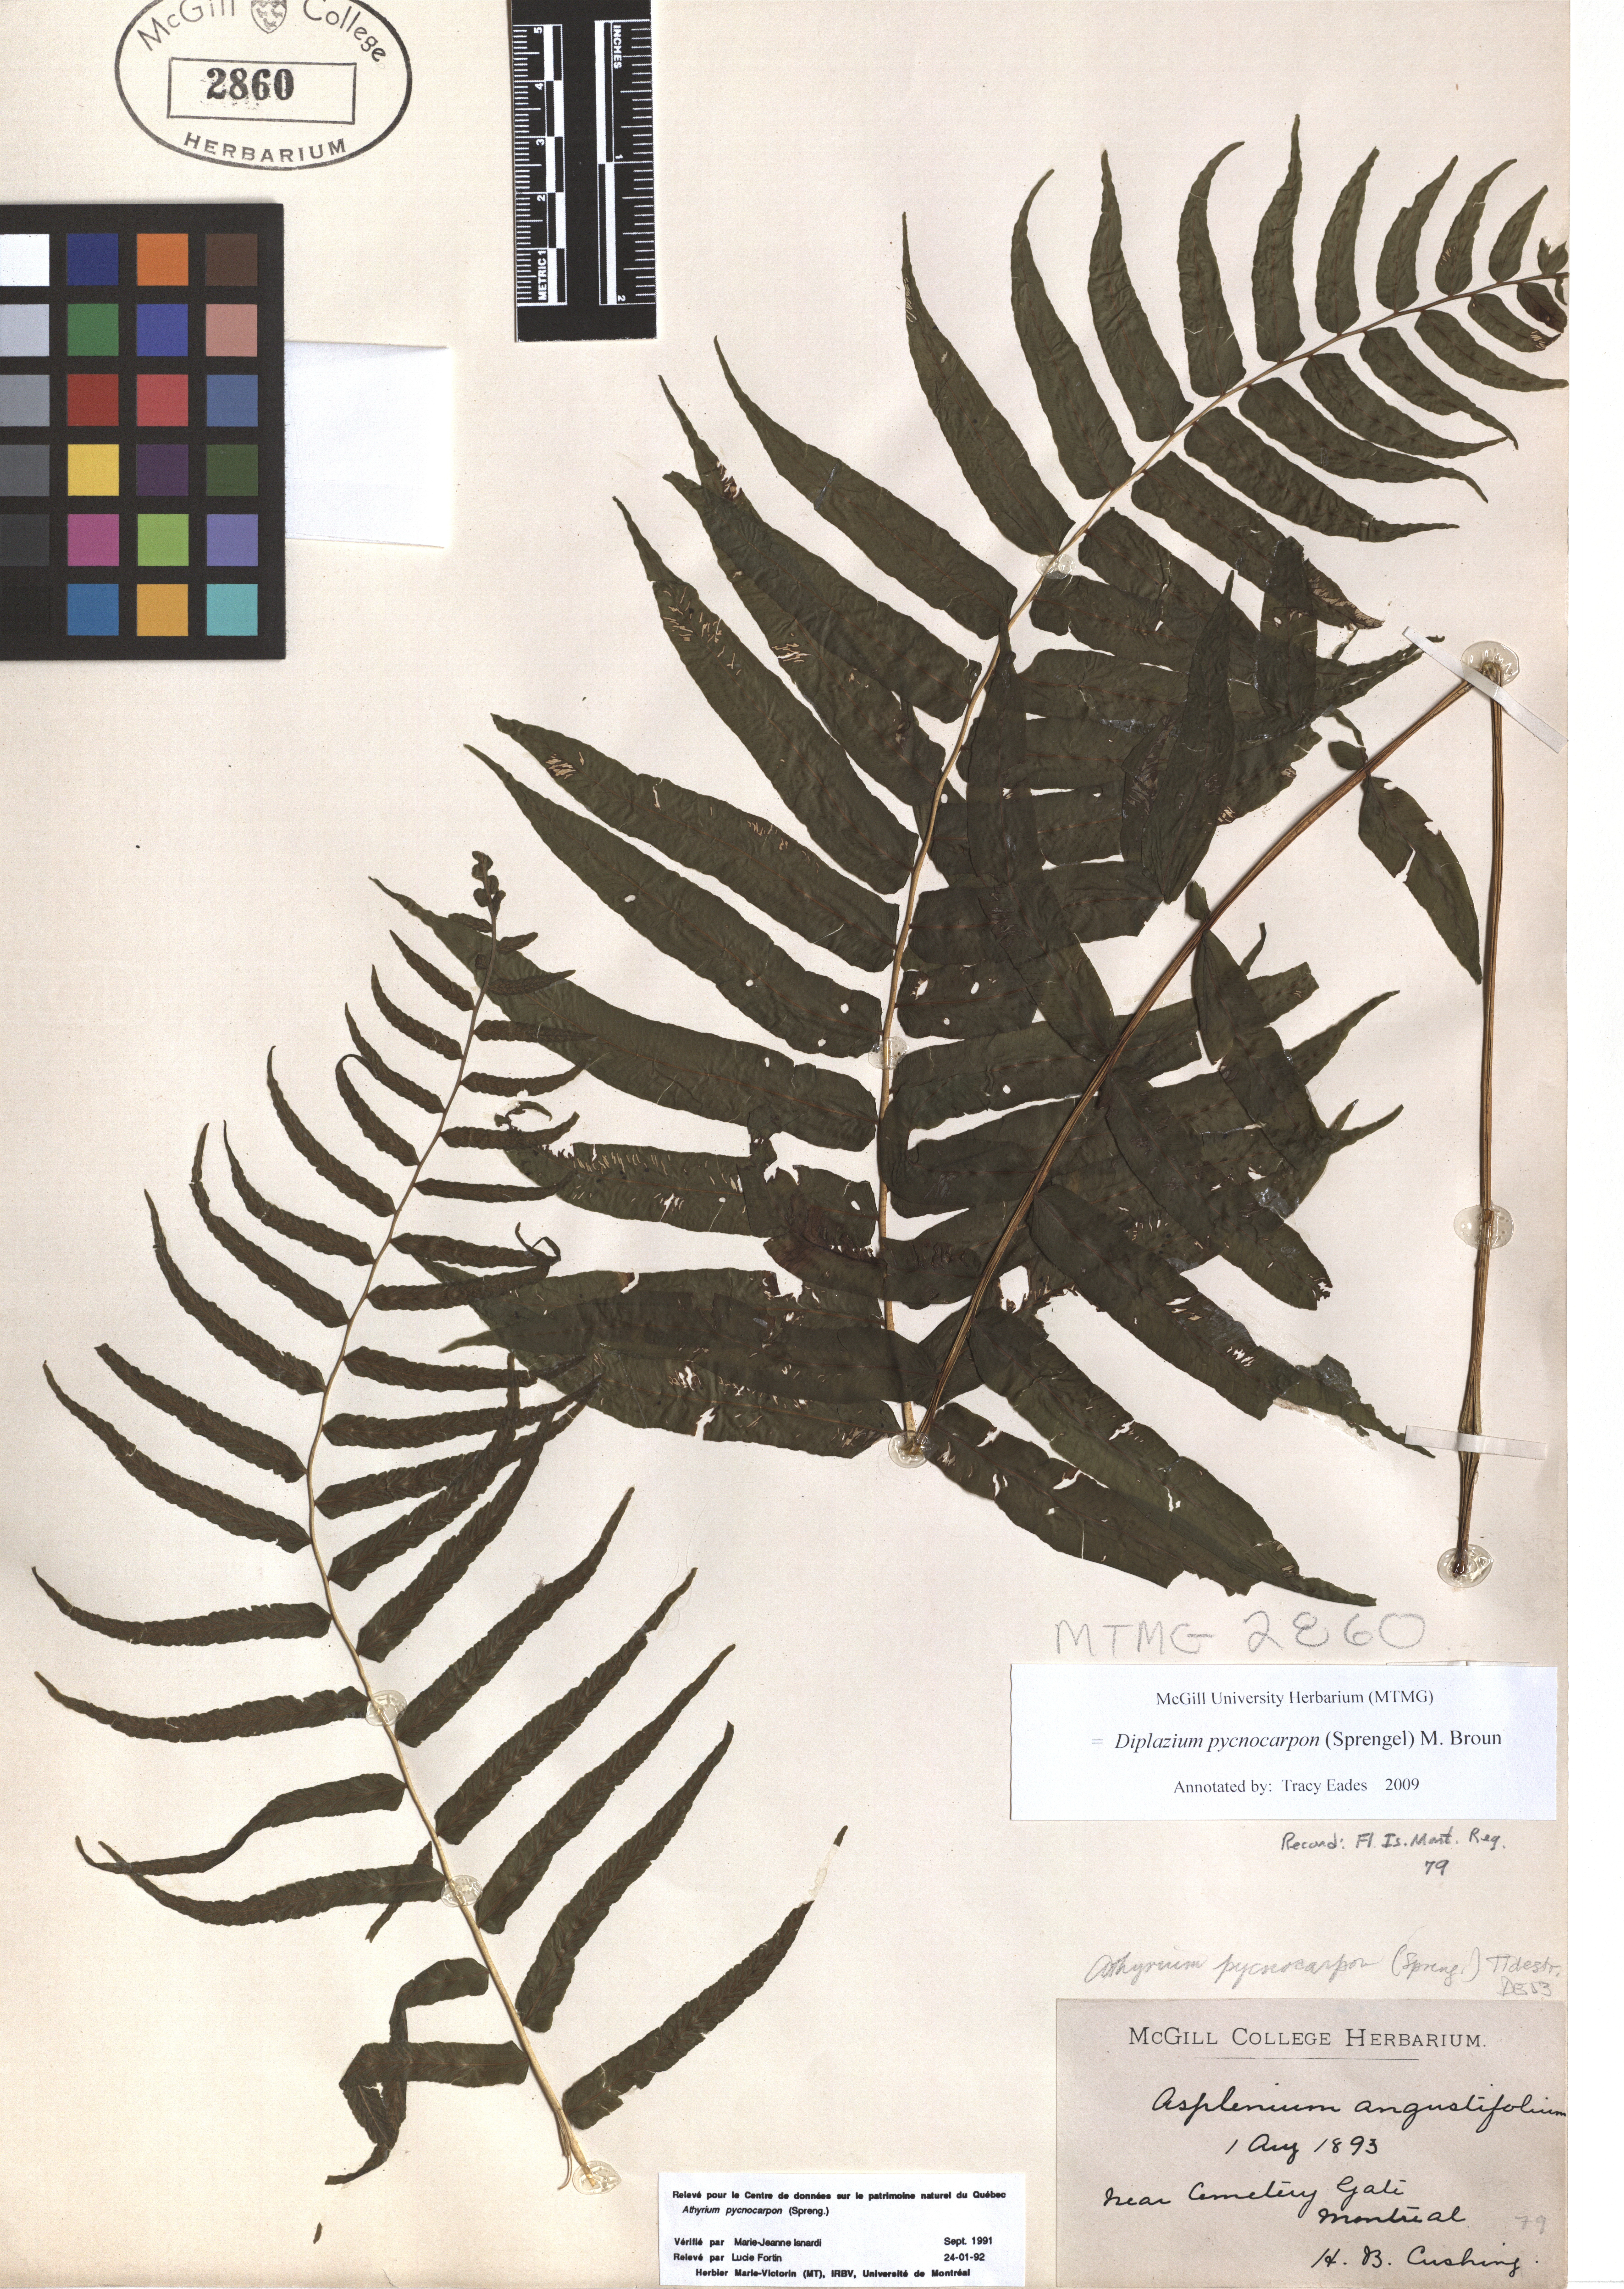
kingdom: Plantae
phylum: Tracheophyta
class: Polypodiopsida
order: Polypodiales
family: Diplaziopsidaceae
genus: Homalosorus
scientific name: Homalosorus pycnocarpos
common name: Glade fern
